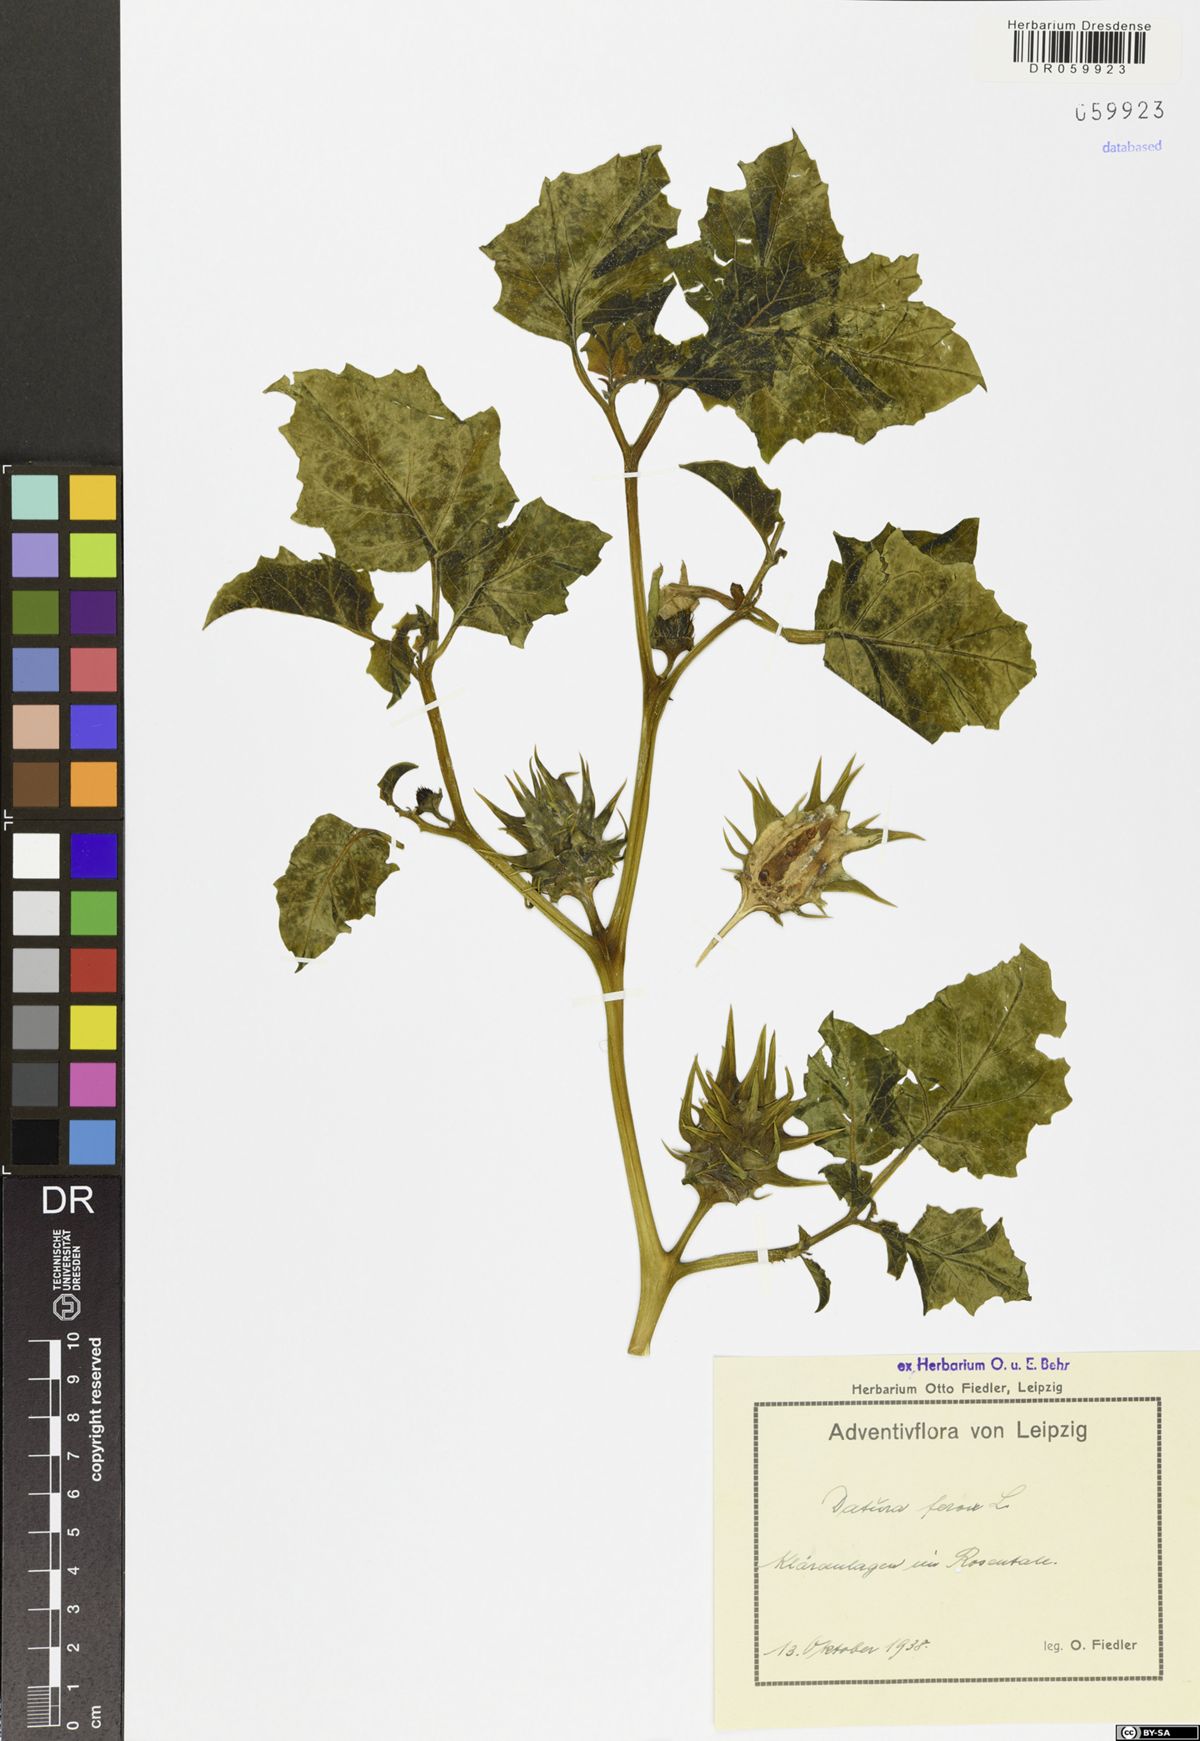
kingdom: Plantae
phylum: Tracheophyta
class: Magnoliopsida
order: Solanales
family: Solanaceae
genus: Datura
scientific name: Datura ferox
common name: Angel's-trumpets
